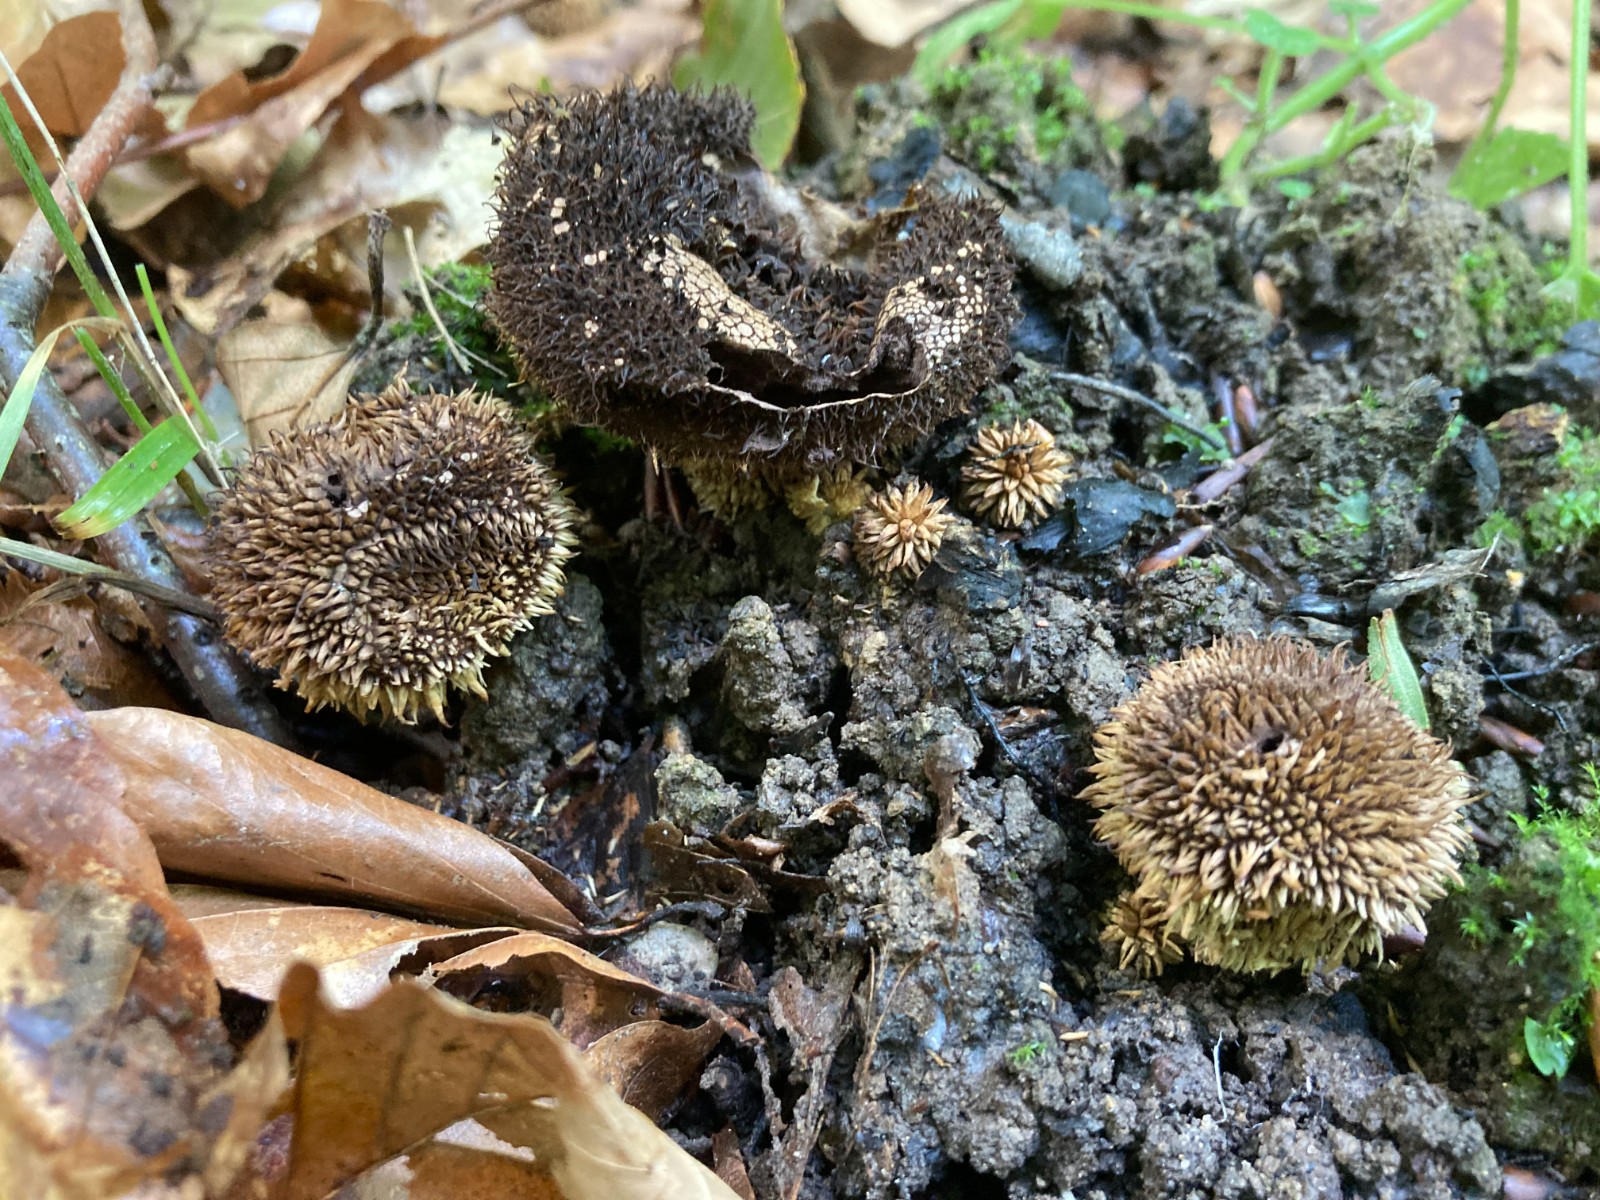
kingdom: Fungi
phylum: Basidiomycota
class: Agaricomycetes
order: Agaricales
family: Lycoperdaceae
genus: Lycoperdon
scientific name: Lycoperdon echinatum
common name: pindsvine-støvbold
